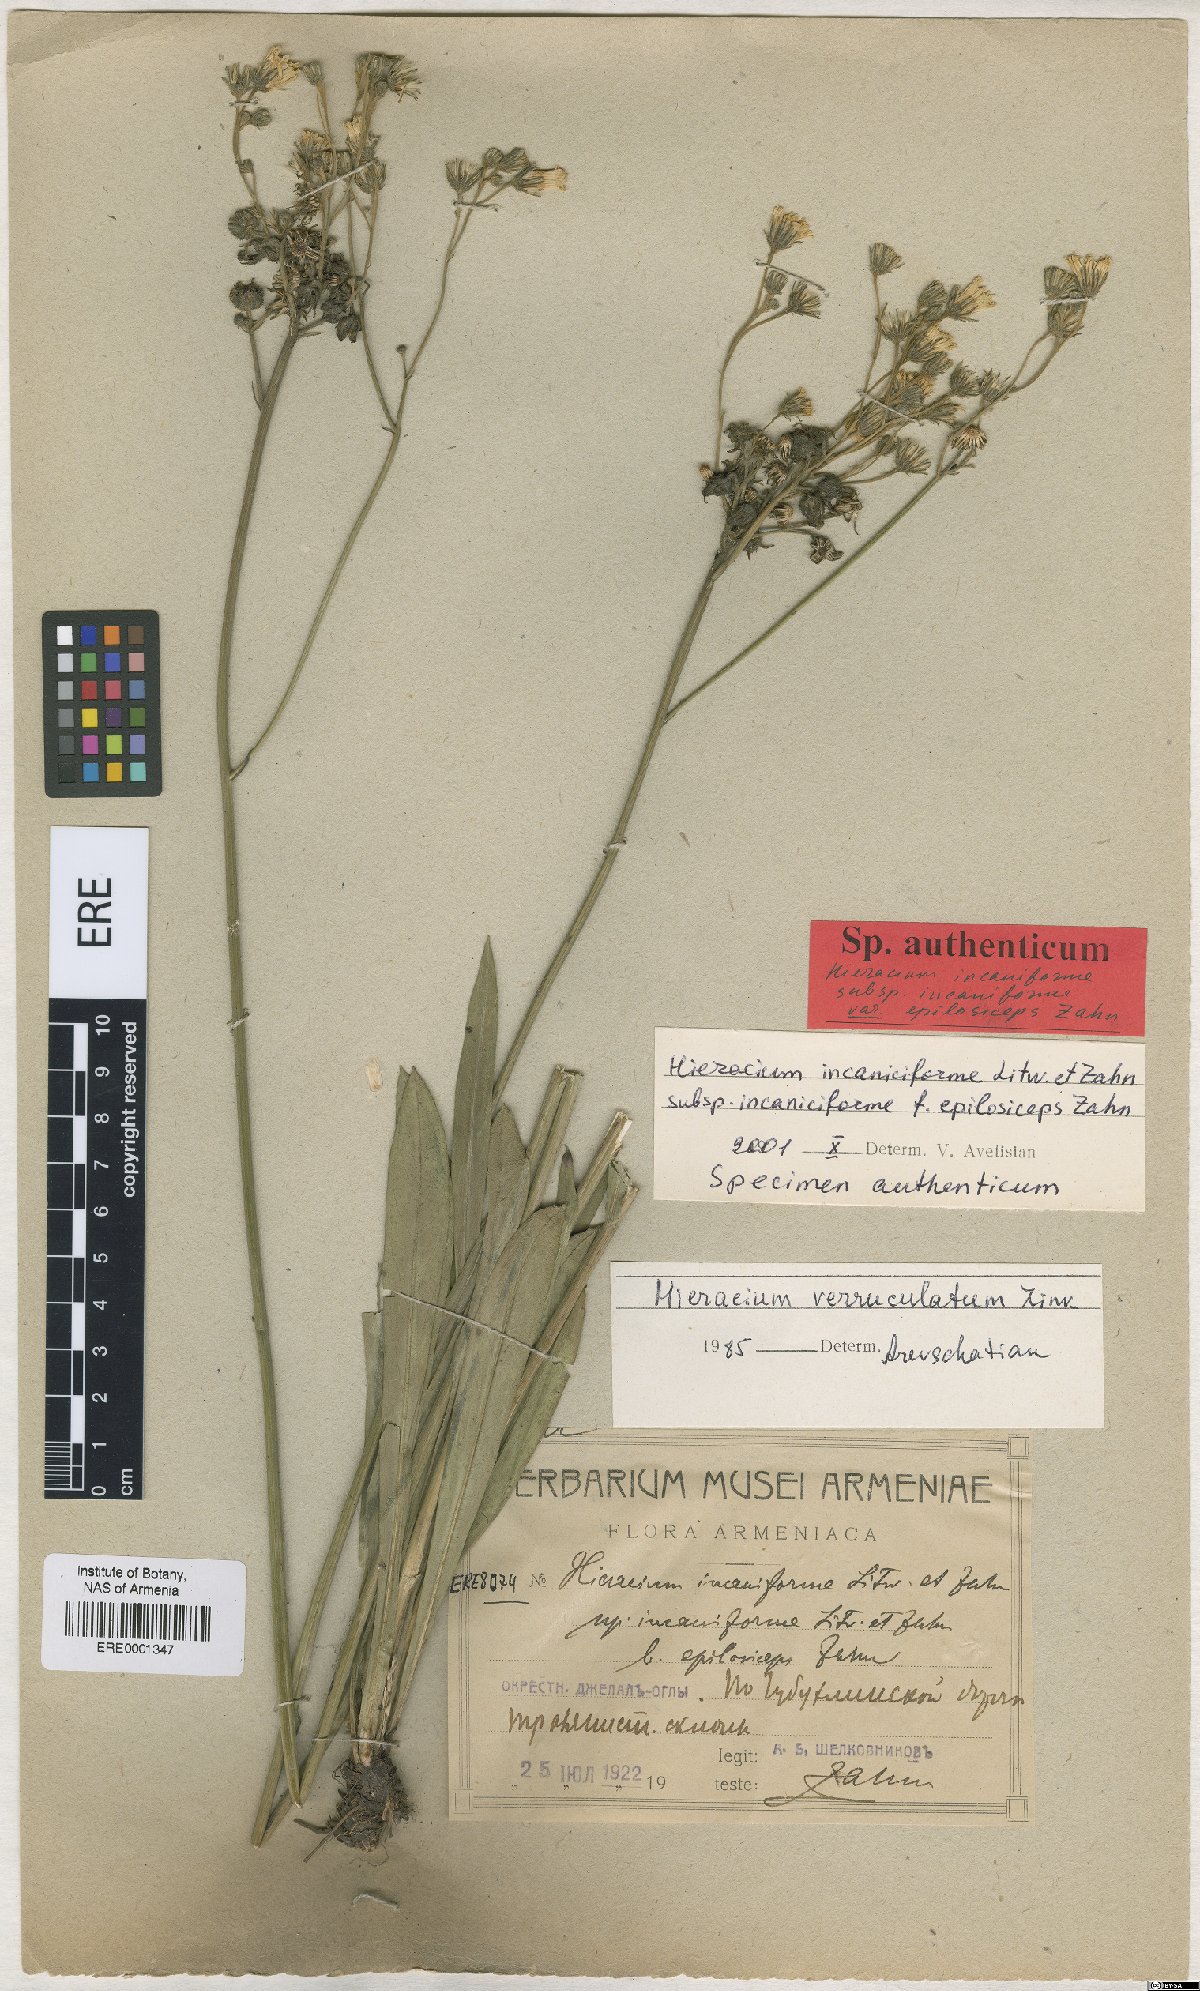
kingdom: Plantae
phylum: Tracheophyta
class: Magnoliopsida
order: Asterales
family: Asteraceae
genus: Pilosella
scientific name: Pilosella sintenisii
